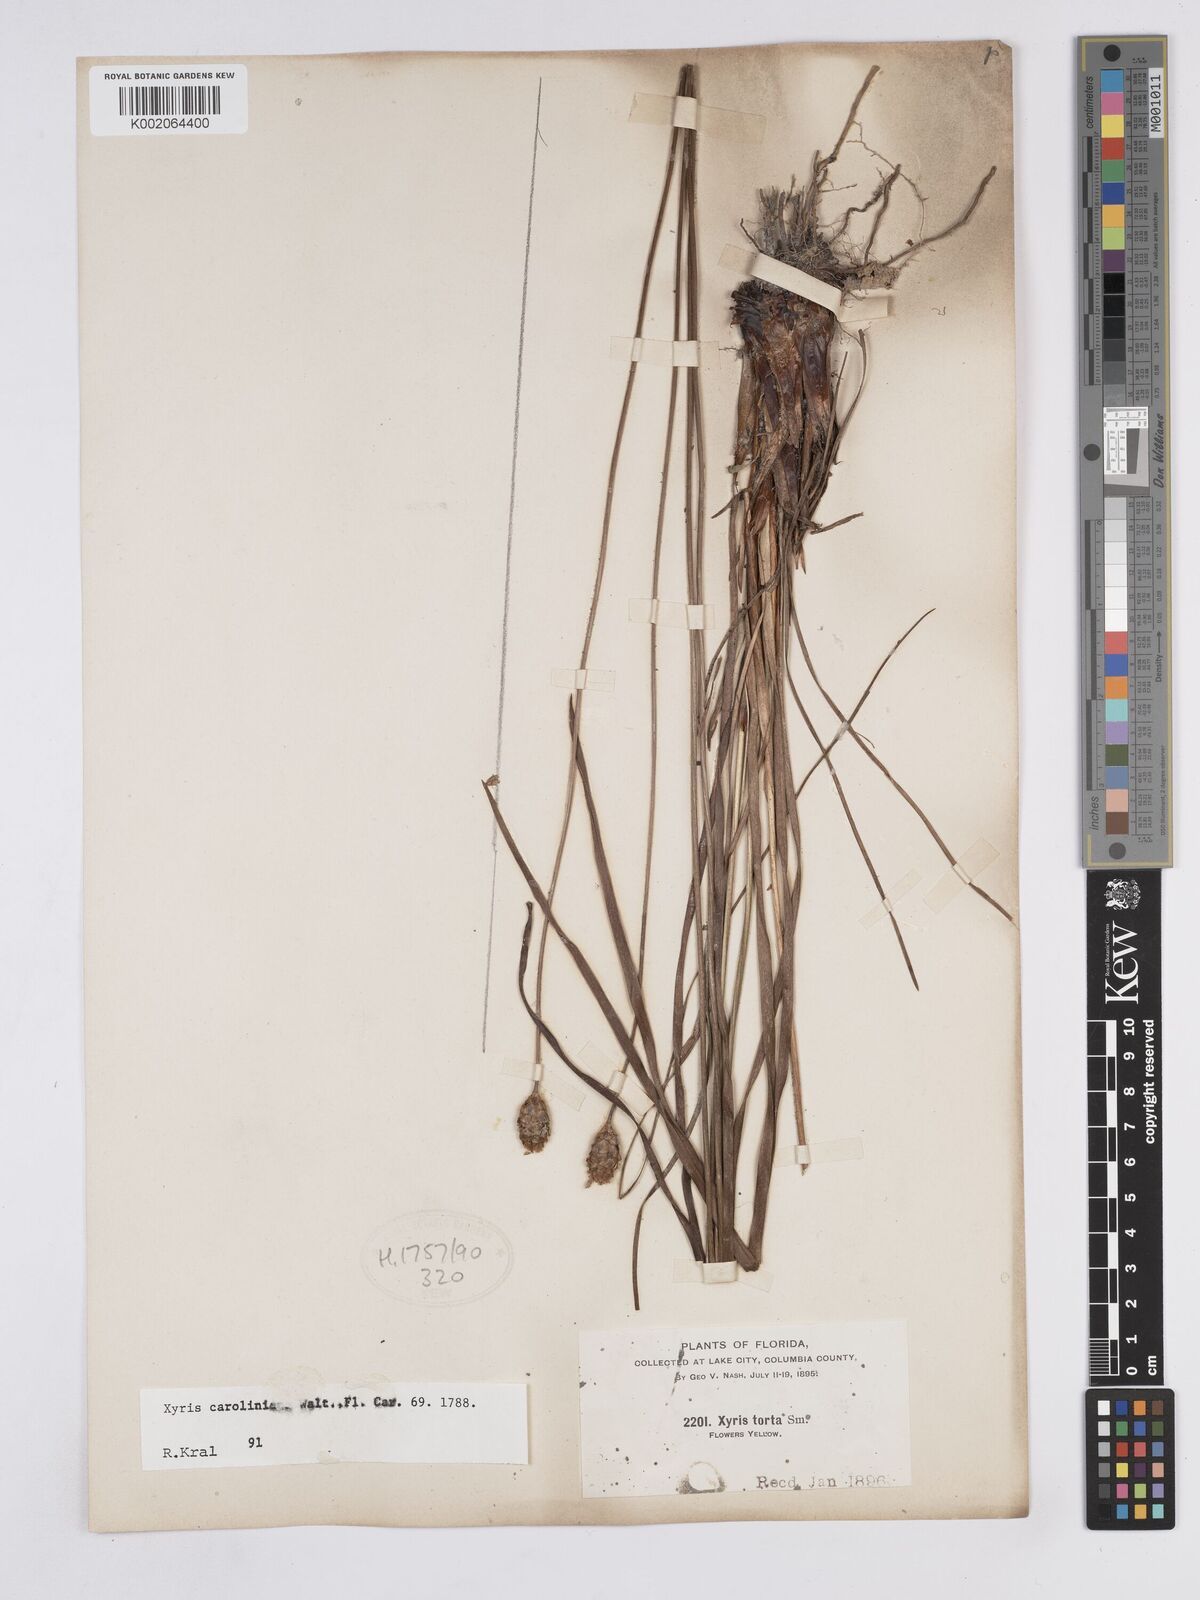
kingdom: Plantae
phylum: Tracheophyta
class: Liliopsida
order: Poales
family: Xyridaceae
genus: Xyris
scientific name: Xyris caroliniana
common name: Carolina yellow-eyed-grass
